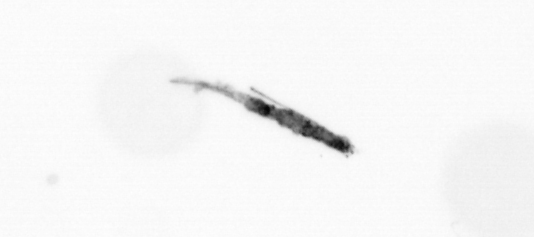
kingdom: Bacteria
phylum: Cyanobacteria
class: Cyanobacteriia
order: Cyanobacteriales
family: Microcoleaceae
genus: Trichodesmium
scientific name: Trichodesmium
